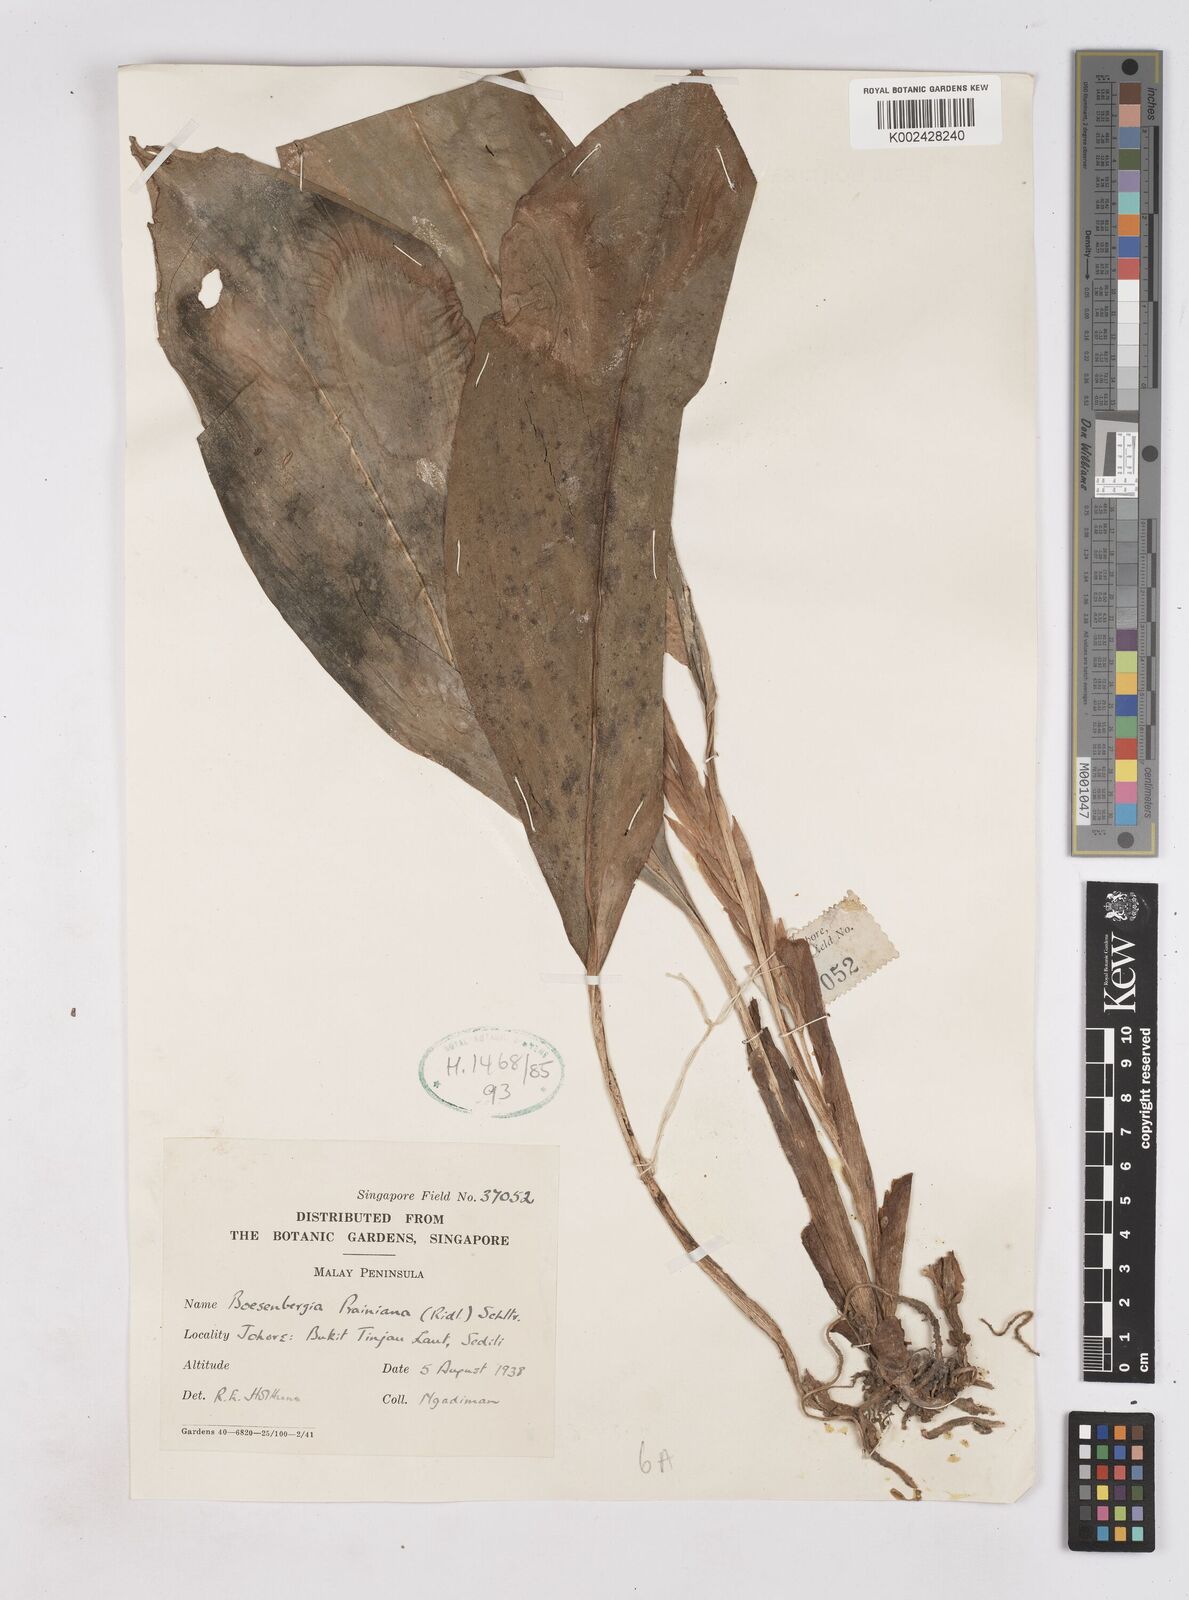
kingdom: Plantae
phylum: Tracheophyta
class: Liliopsida
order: Zingiberales
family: Zingiberaceae
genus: Boesenbergia
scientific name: Boesenbergia prainiana
